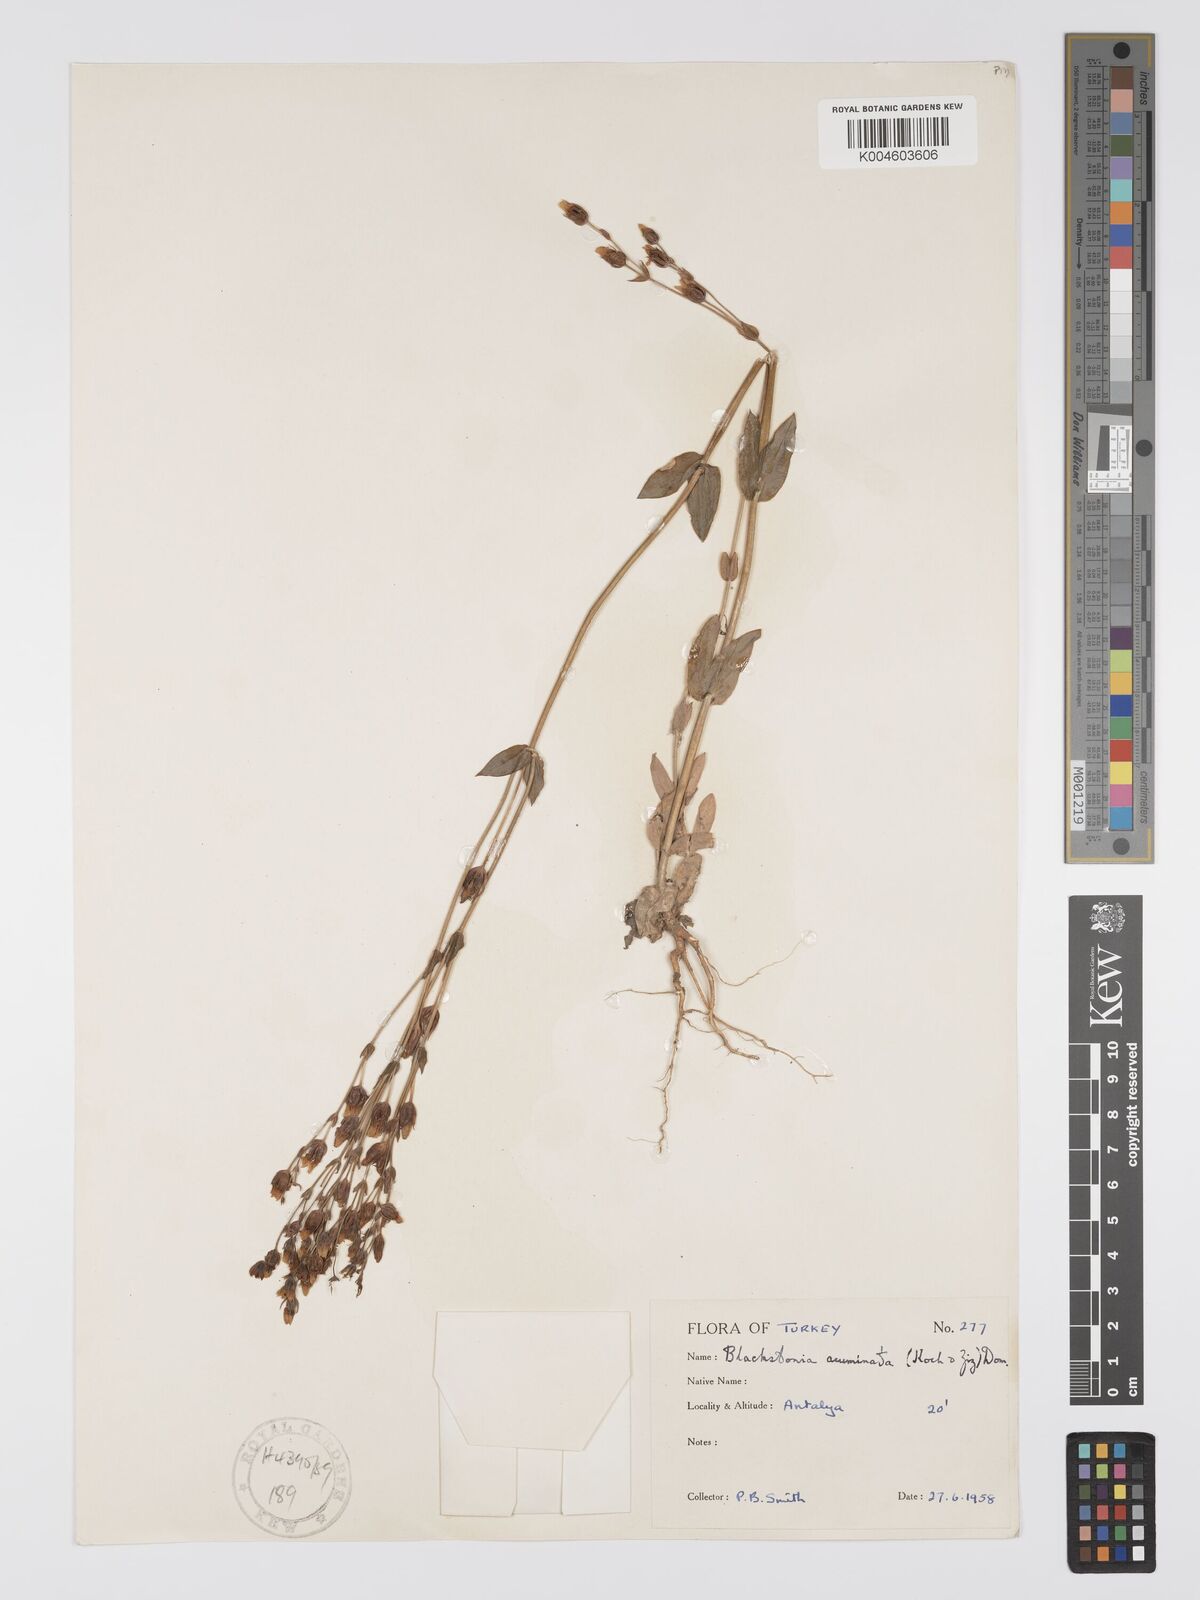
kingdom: Plantae
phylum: Tracheophyta
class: Magnoliopsida
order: Gentianales
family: Gentianaceae
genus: Blackstonia
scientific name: Blackstonia acuminata
